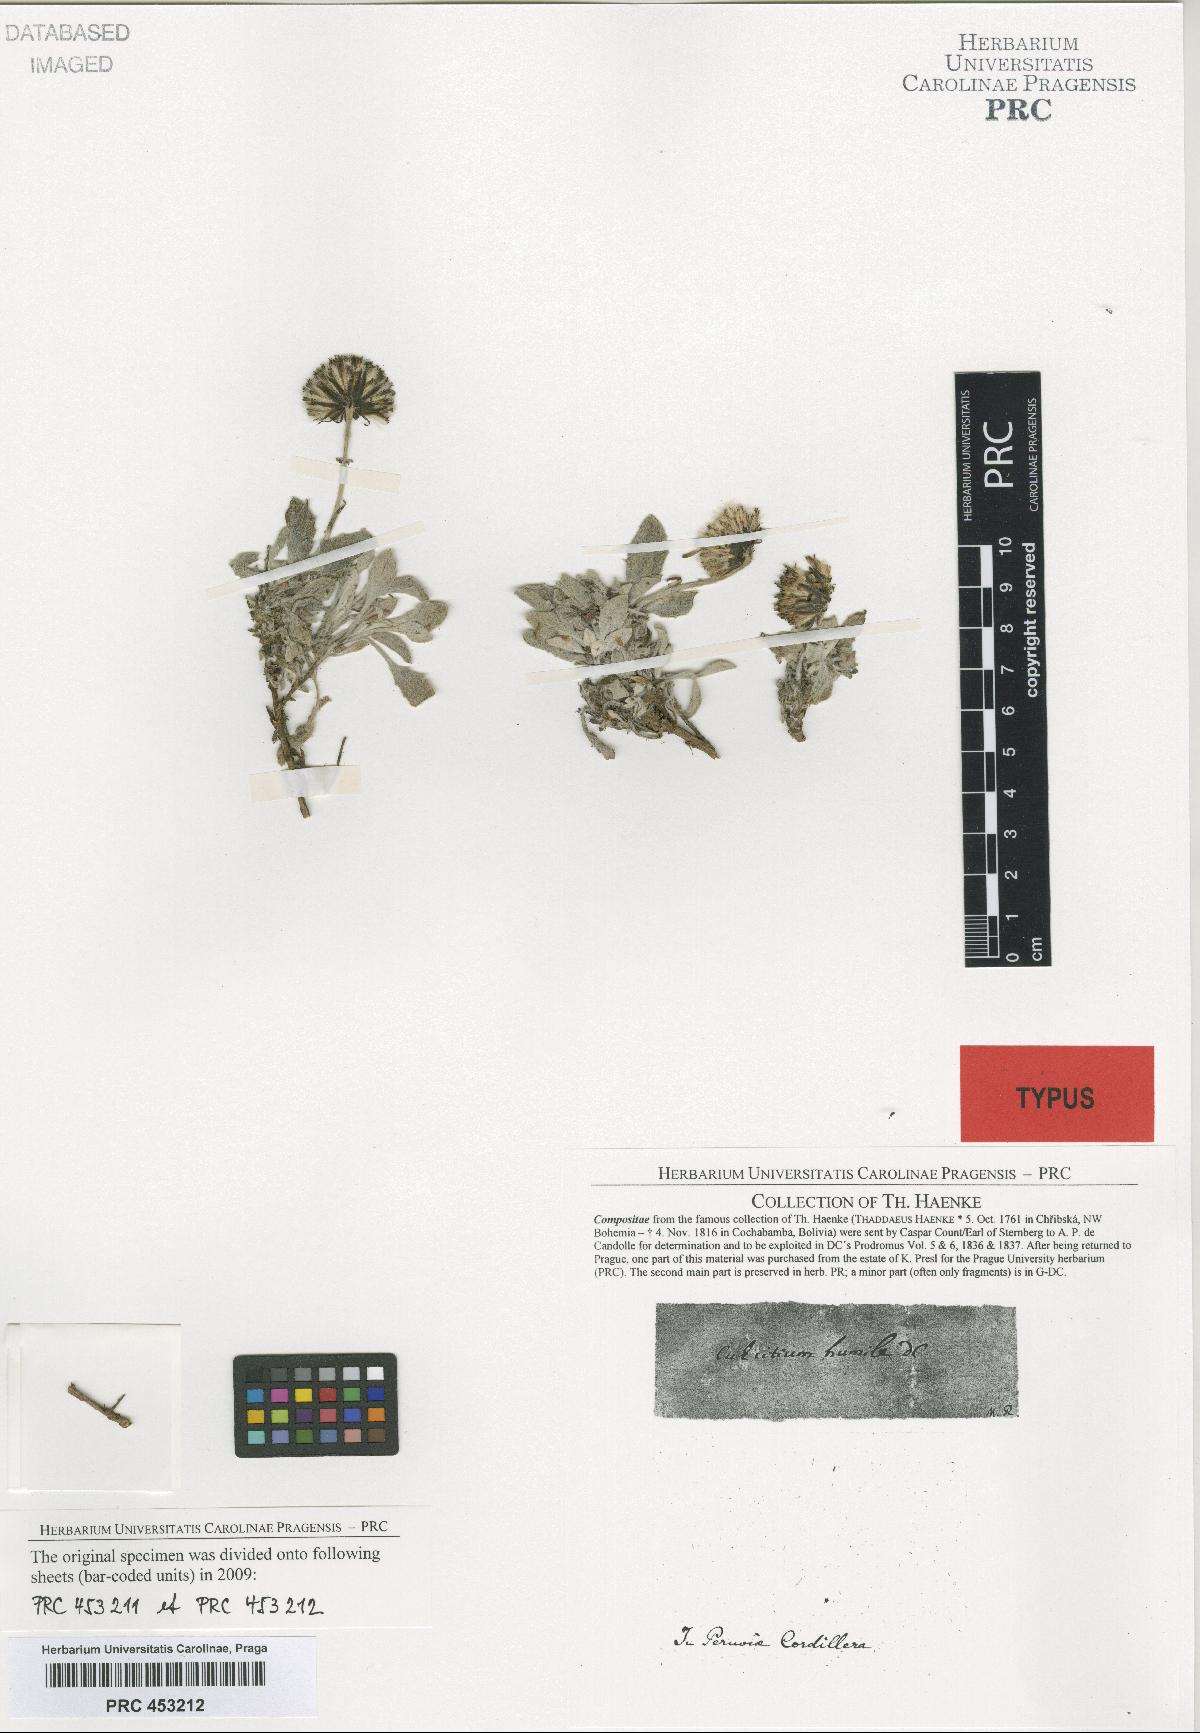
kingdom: Plantae
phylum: Tracheophyta
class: Magnoliopsida
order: Asterales
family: Asteraceae
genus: Culcitium
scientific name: Culcitium humile
